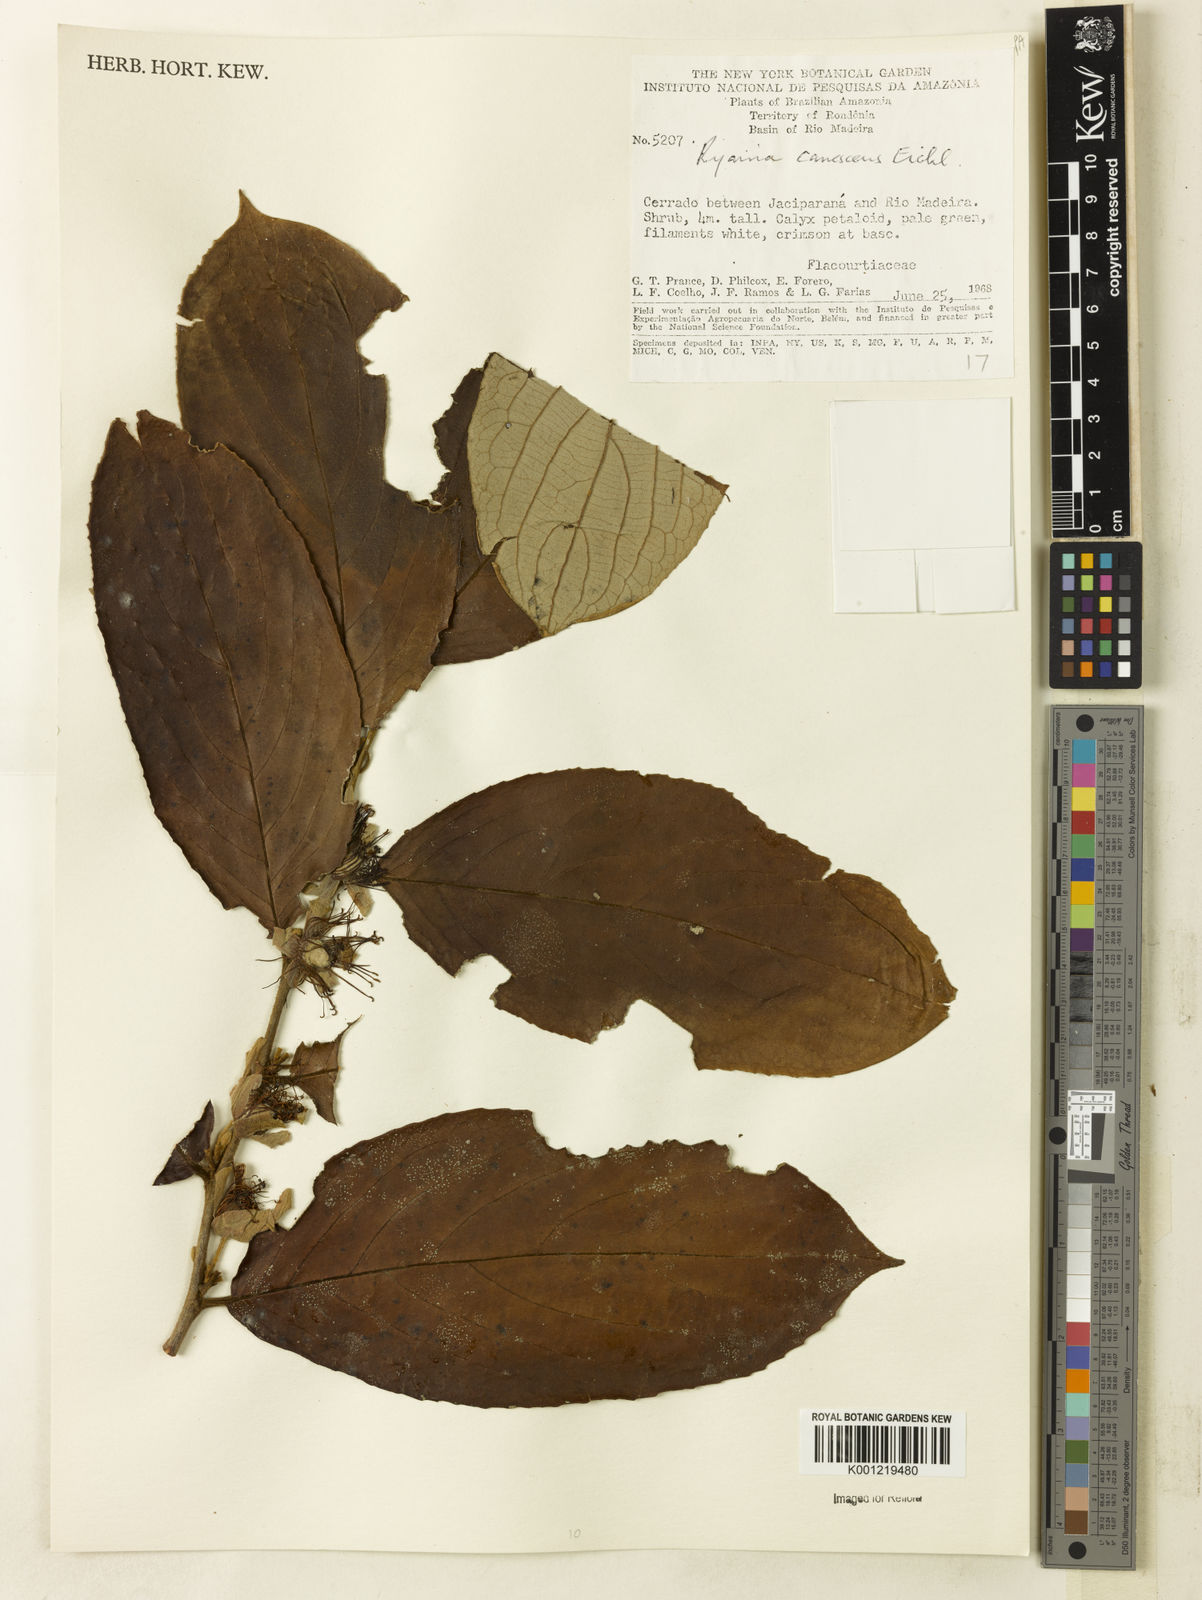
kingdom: Plantae
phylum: Tracheophyta
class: Magnoliopsida
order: Malpighiales
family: Salicaceae
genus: Ryania
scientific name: Ryania canescens
